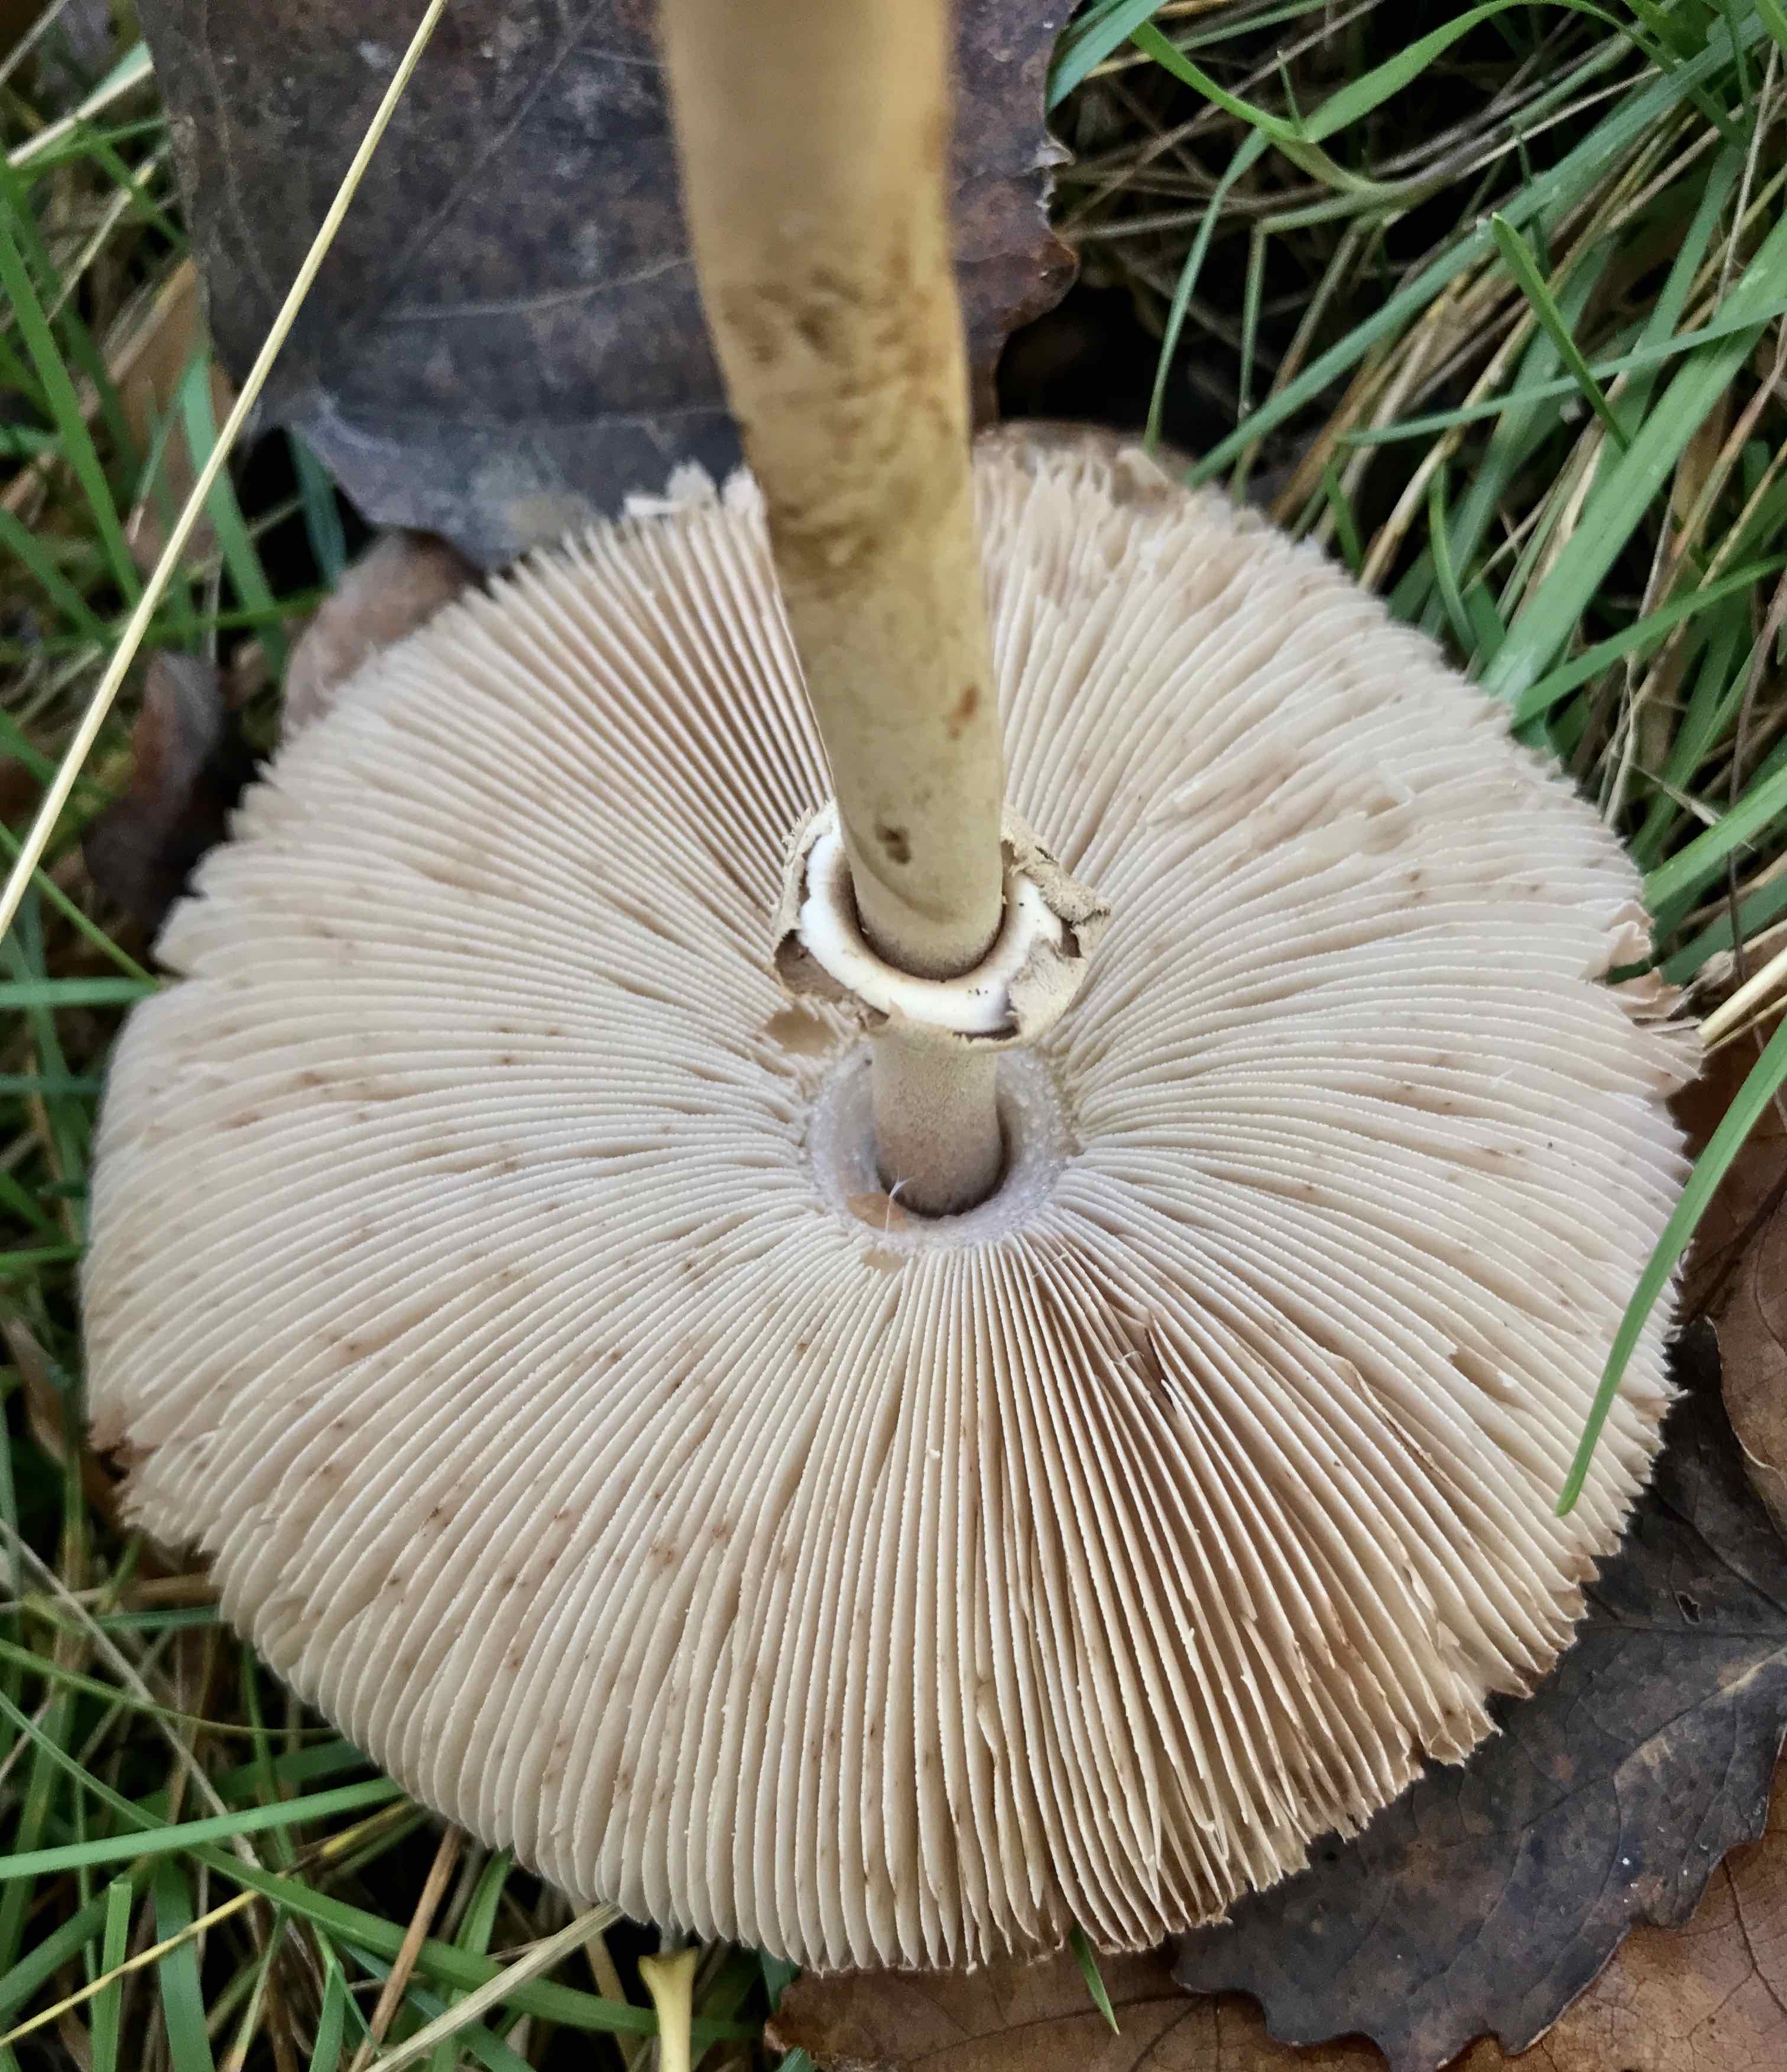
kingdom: Fungi
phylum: Basidiomycota
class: Agaricomycetes
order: Agaricales
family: Agaricaceae
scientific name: Agaricaceae
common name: champignonfamilien
